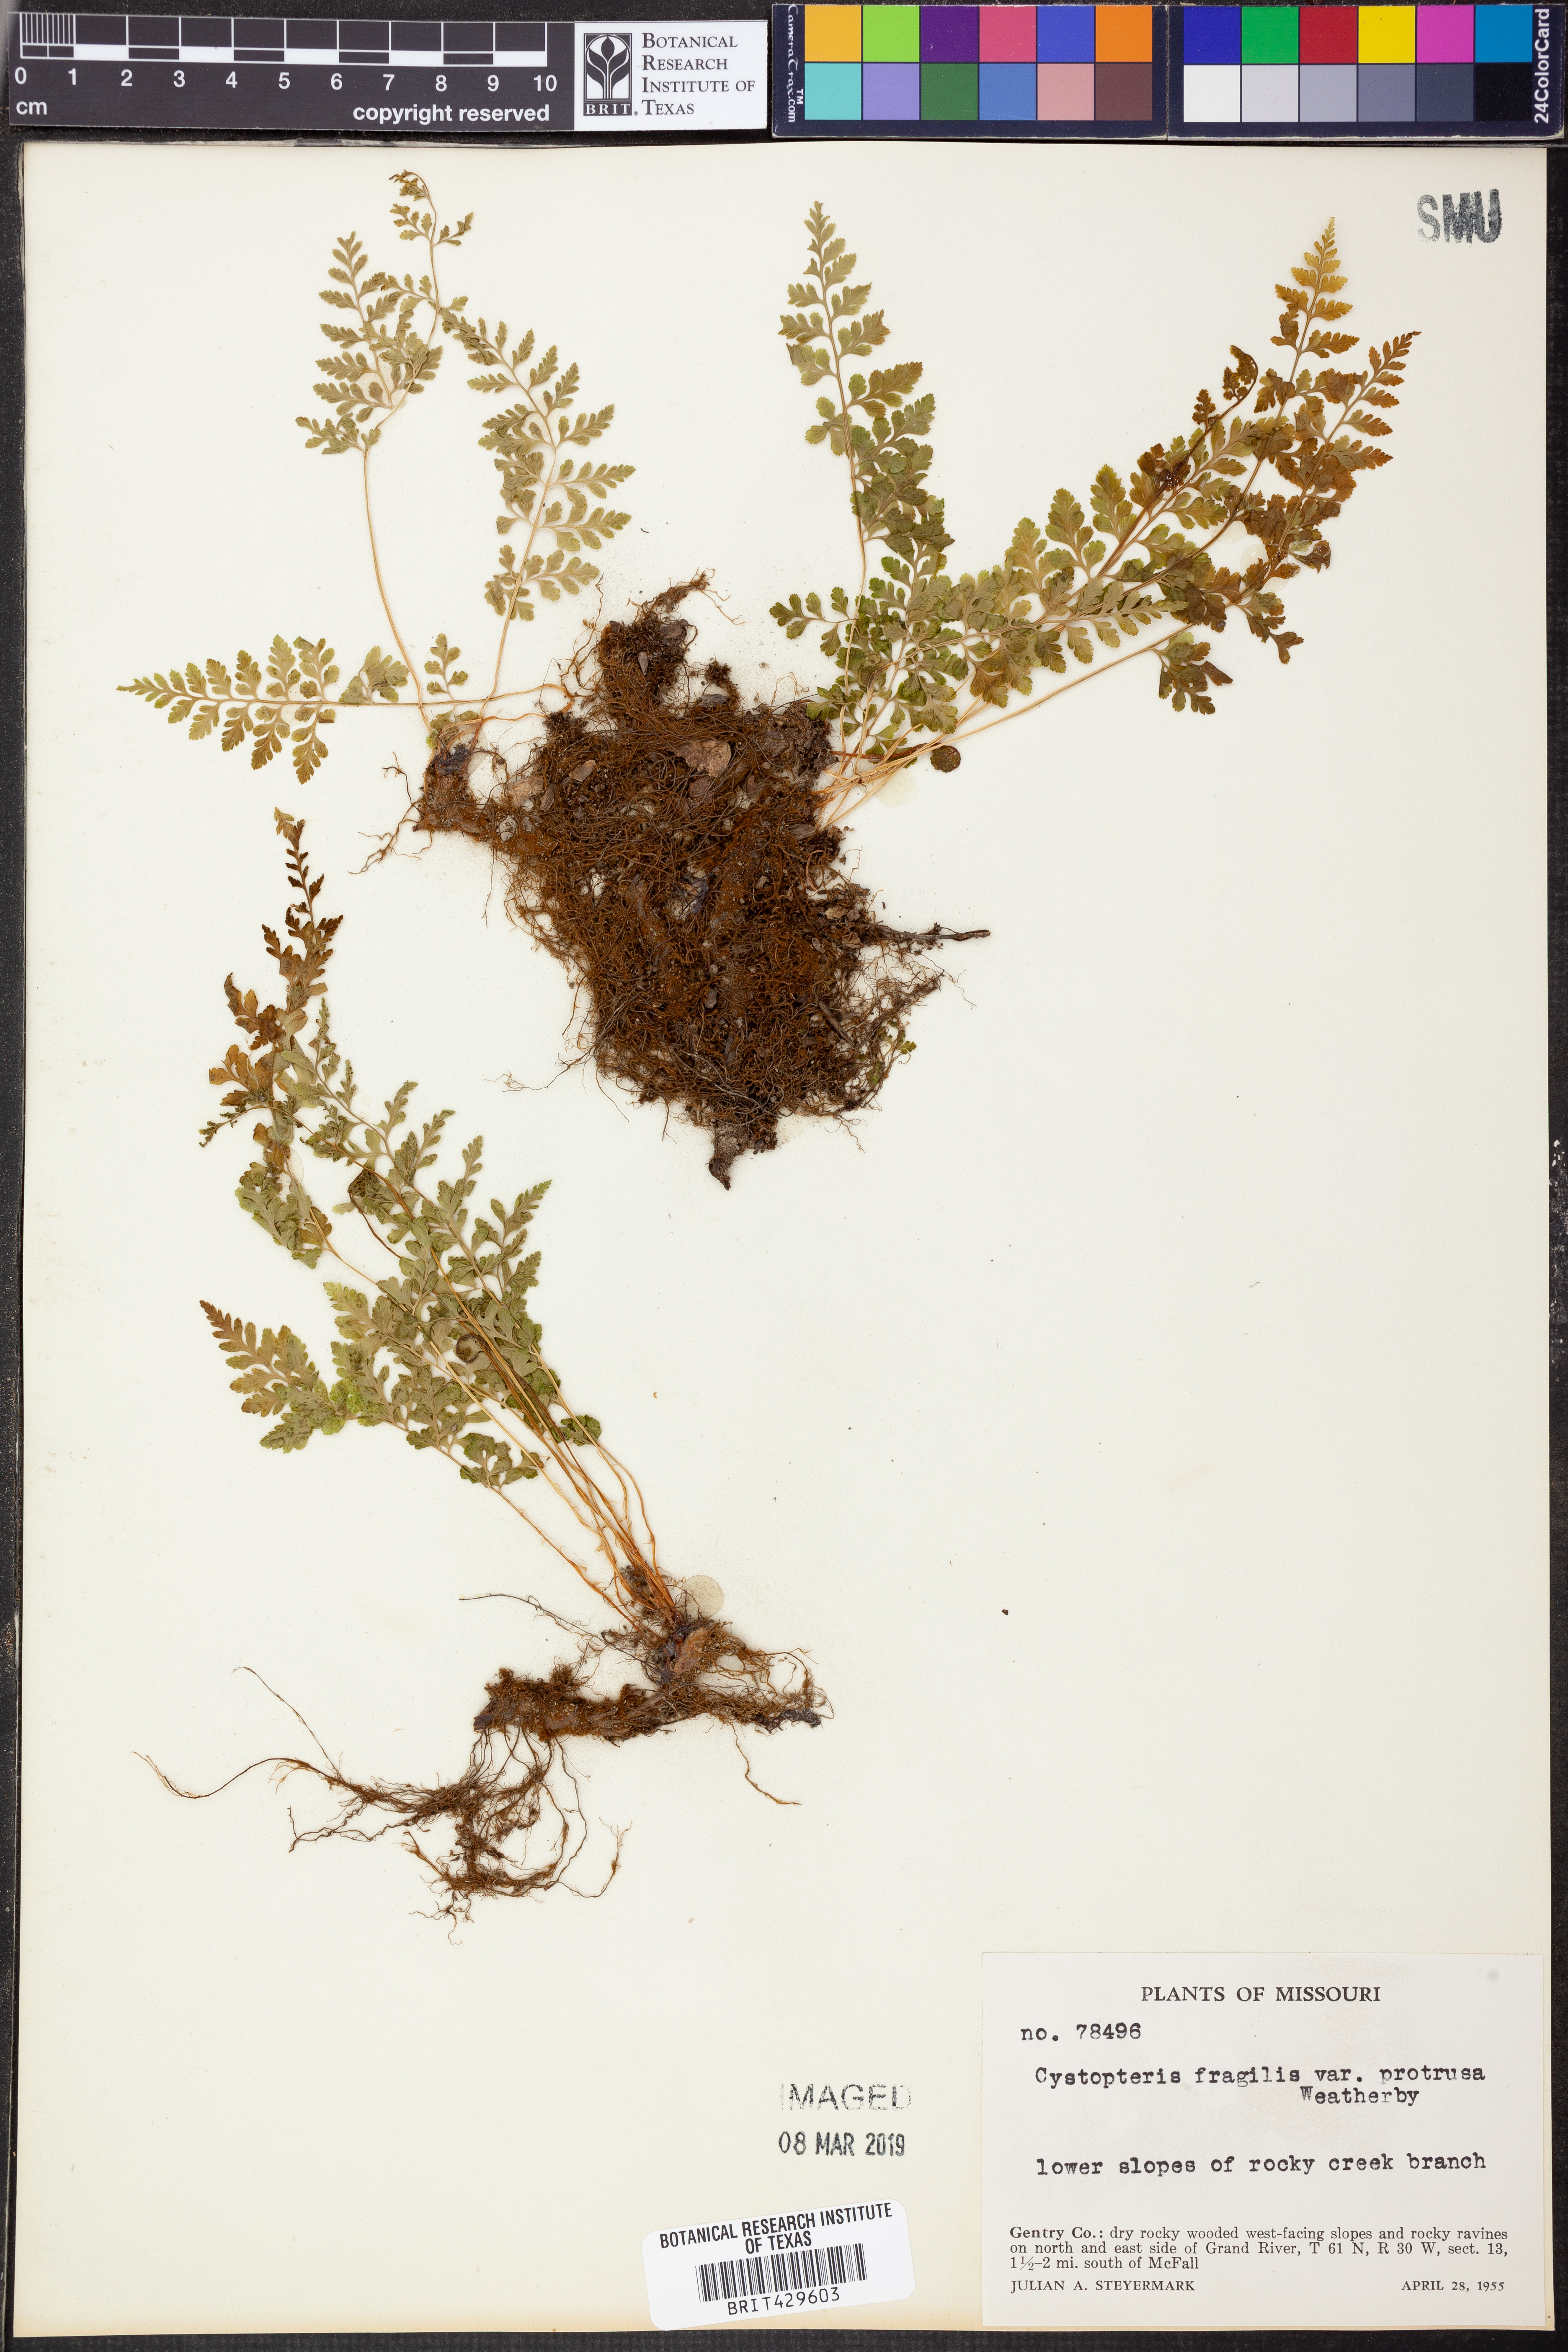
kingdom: Plantae
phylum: Tracheophyta
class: Polypodiopsida
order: Polypodiales
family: Cystopteridaceae
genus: Cystopteris
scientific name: Cystopteris protrusa
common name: Lowland brittle fern
